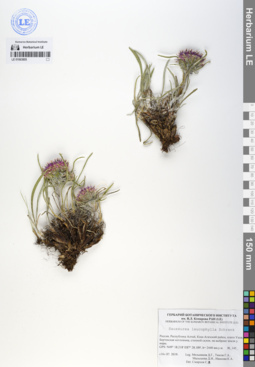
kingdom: Plantae
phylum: Tracheophyta
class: Magnoliopsida
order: Asterales
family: Asteraceae
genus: Saussurea
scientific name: Saussurea leucophylla
